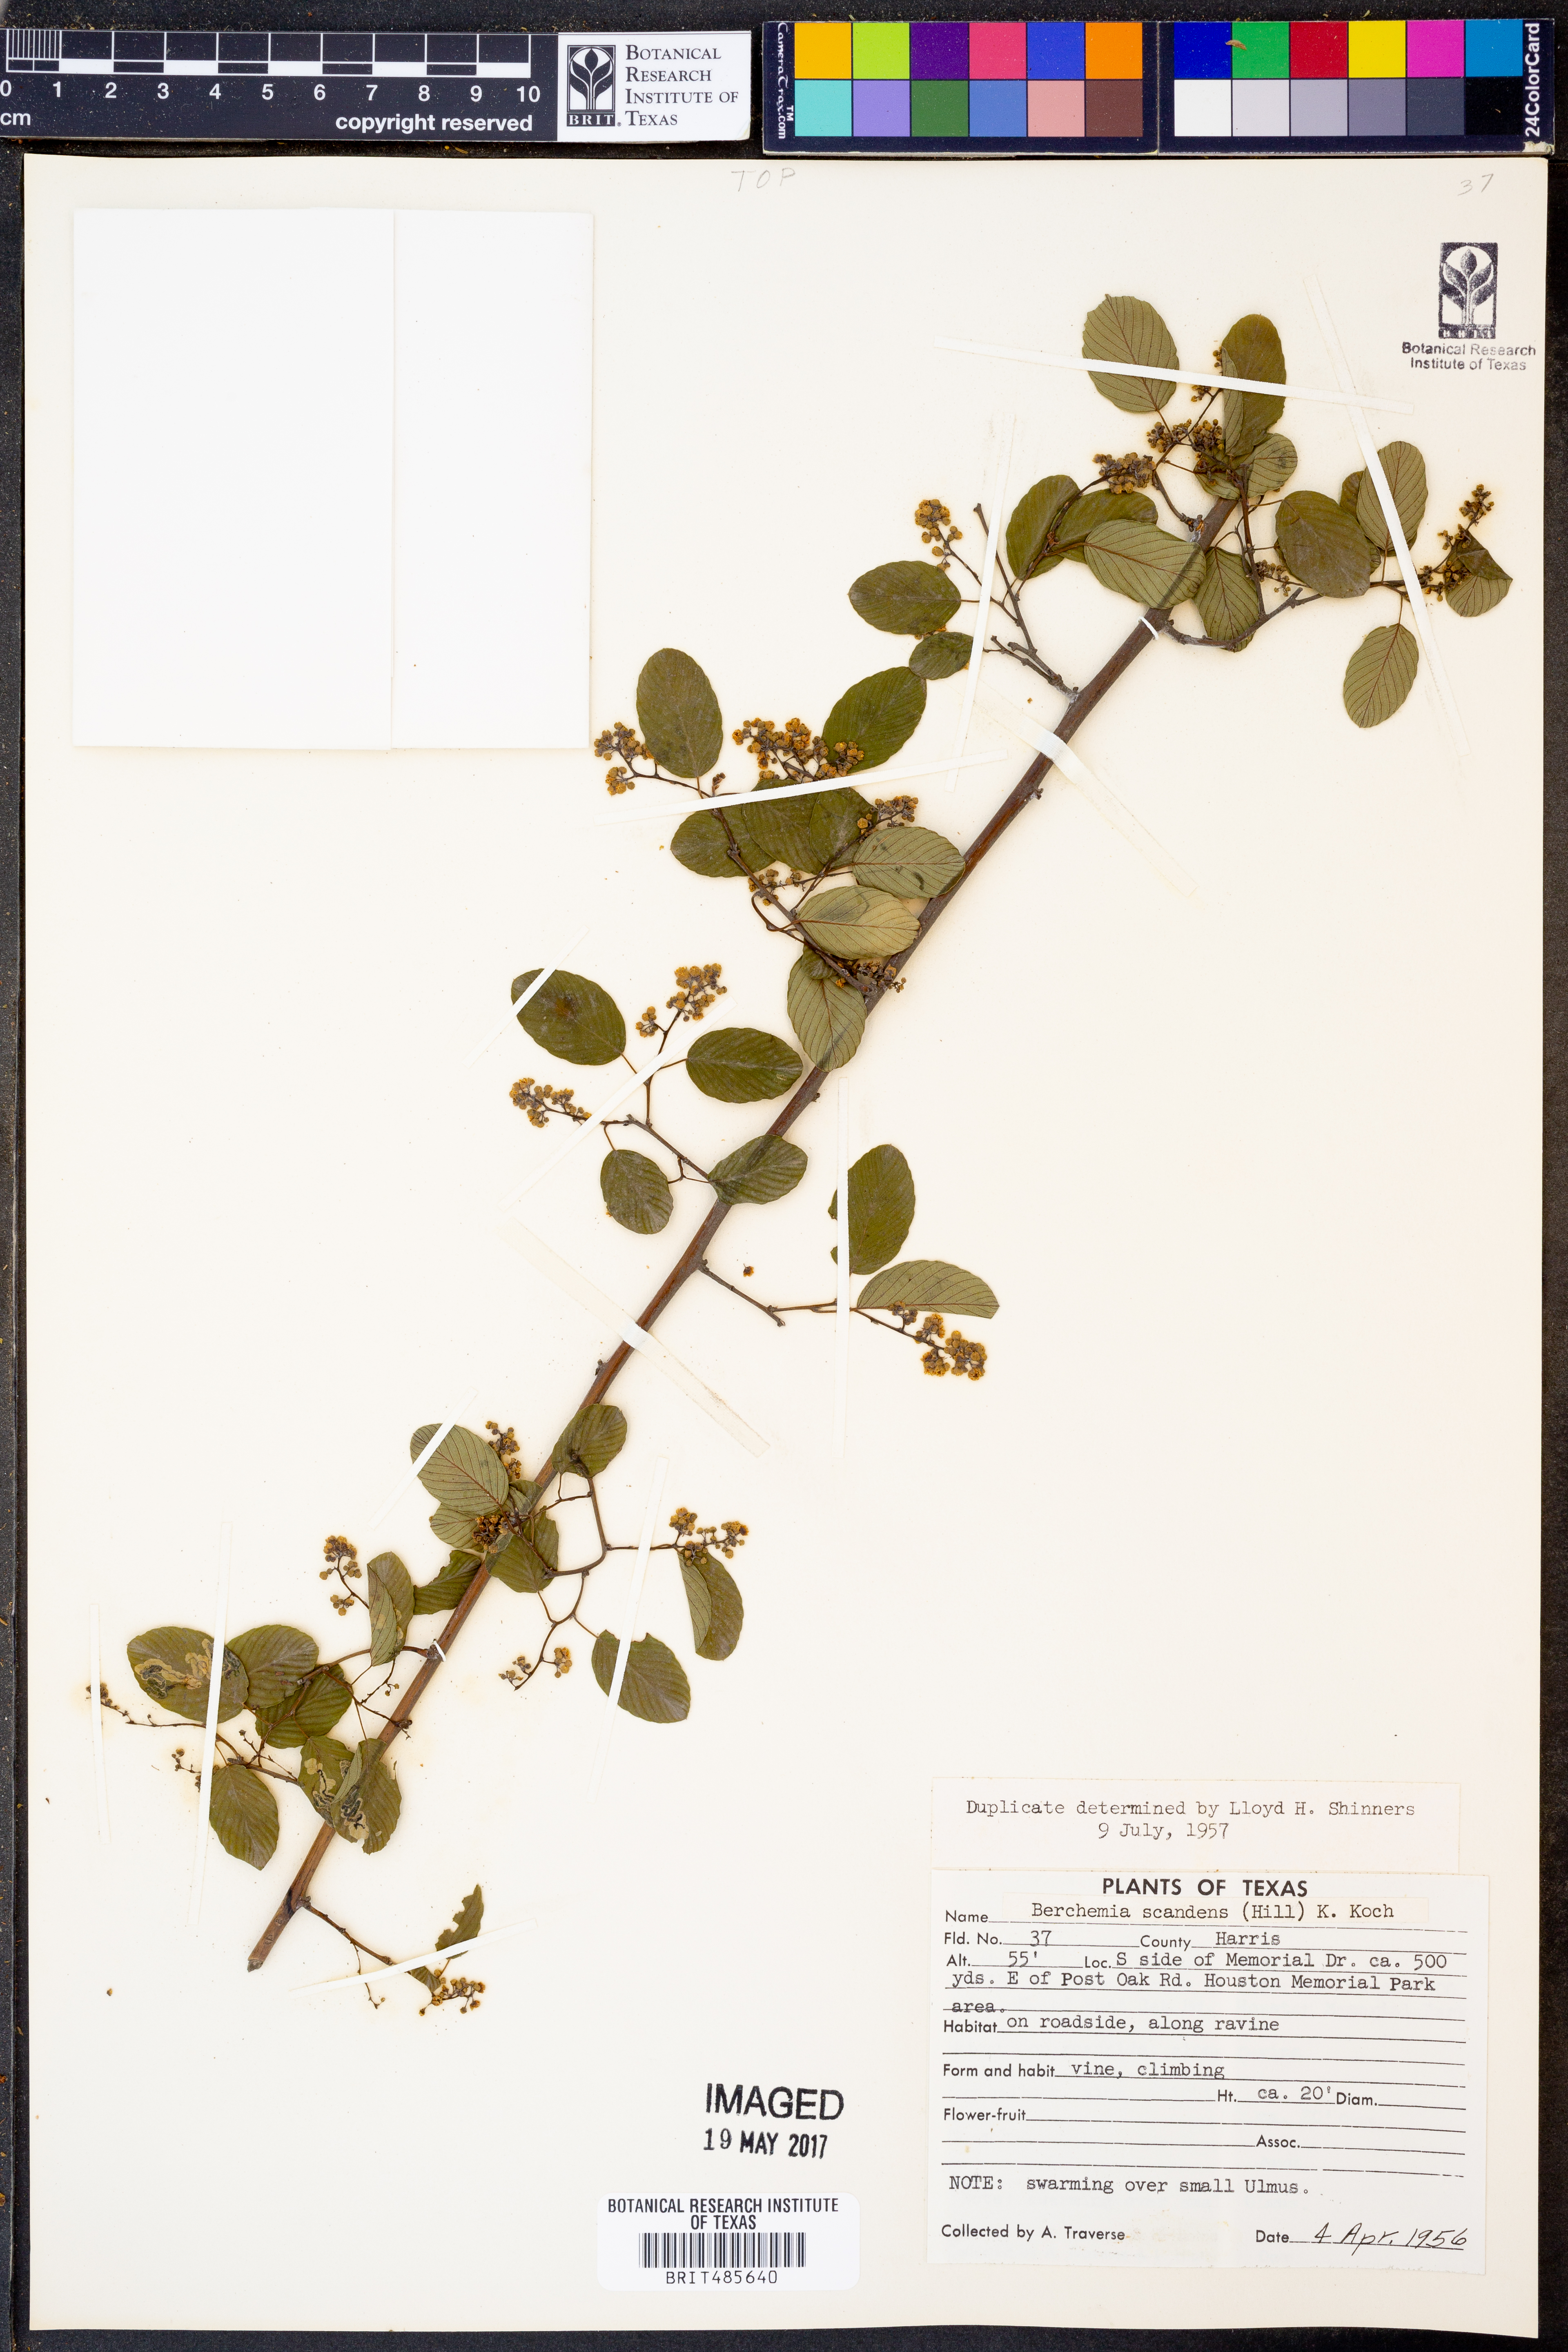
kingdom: Plantae
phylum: Tracheophyta
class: Magnoliopsida
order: Rosales
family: Rhamnaceae
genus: Berchemia
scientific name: Berchemia scandens
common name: Supplejack
